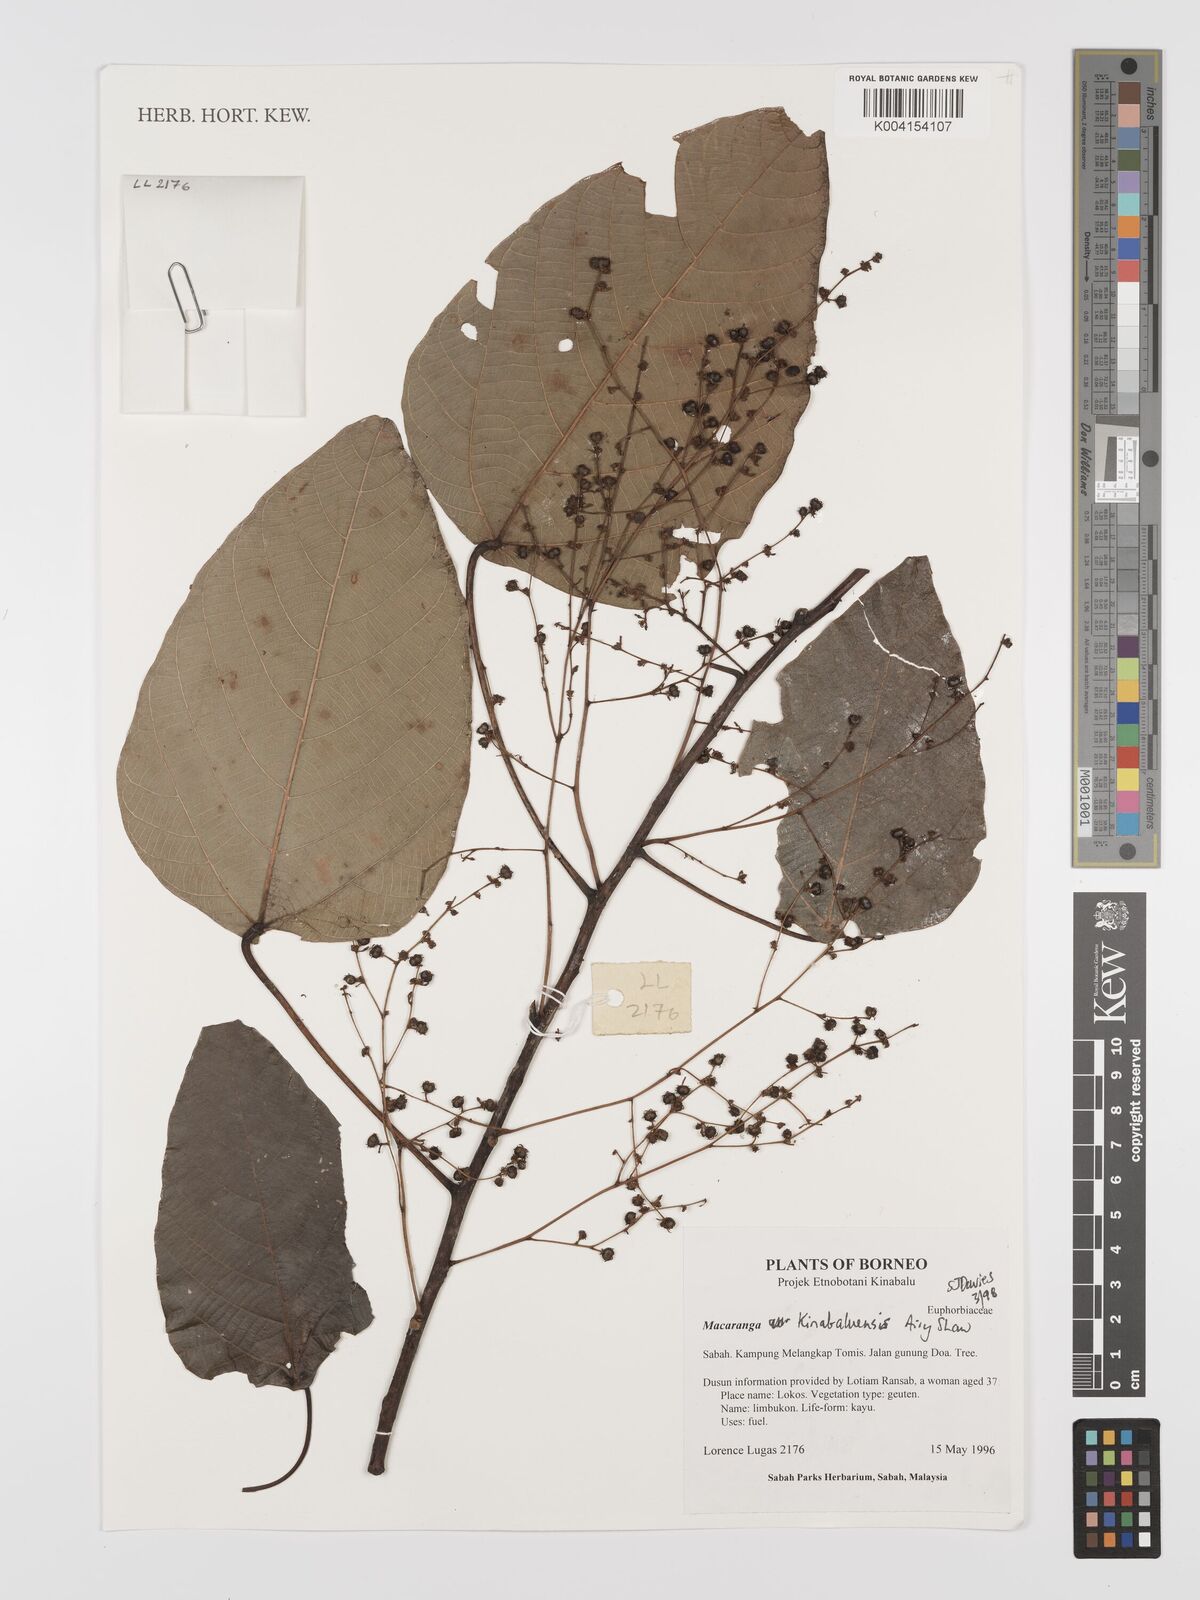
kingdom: Plantae
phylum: Tracheophyta
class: Magnoliopsida
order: Malpighiales
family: Euphorbiaceae
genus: Macaranga
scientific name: Macaranga kinabaluensis
